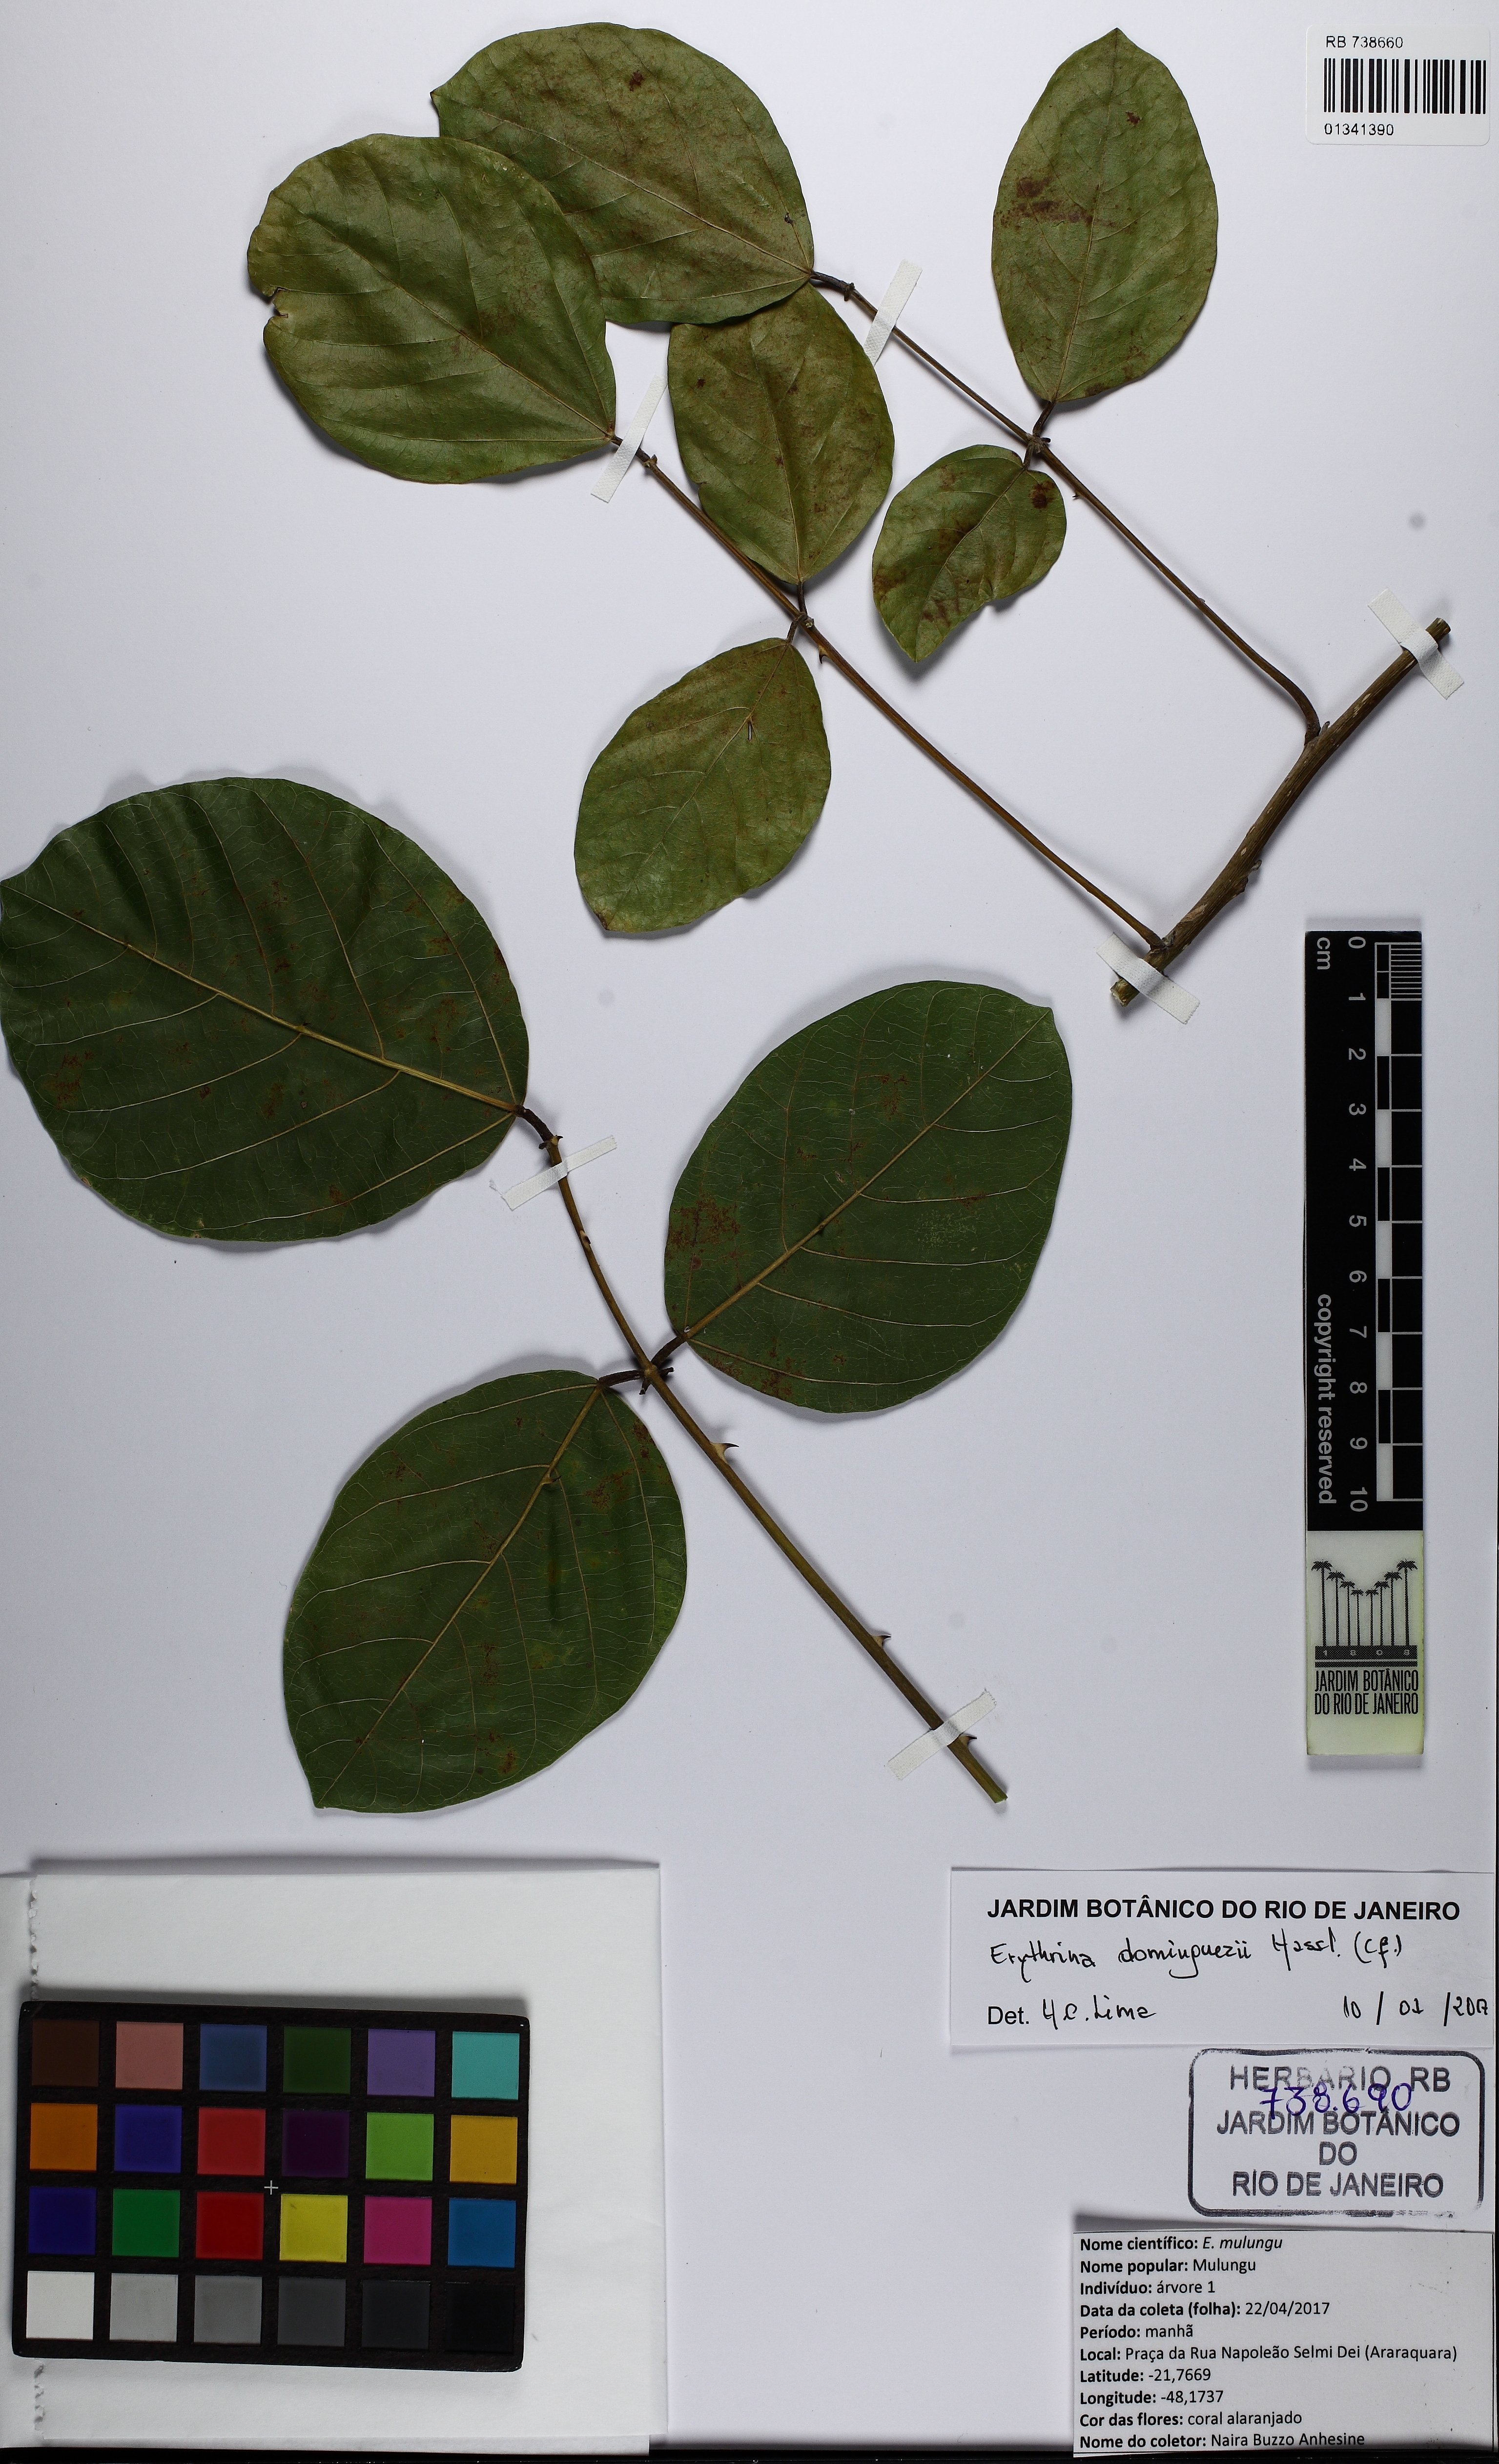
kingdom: Plantae
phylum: Tracheophyta
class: Magnoliopsida
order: Fabales
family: Fabaceae
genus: Erythrina
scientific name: Erythrina mulungu
